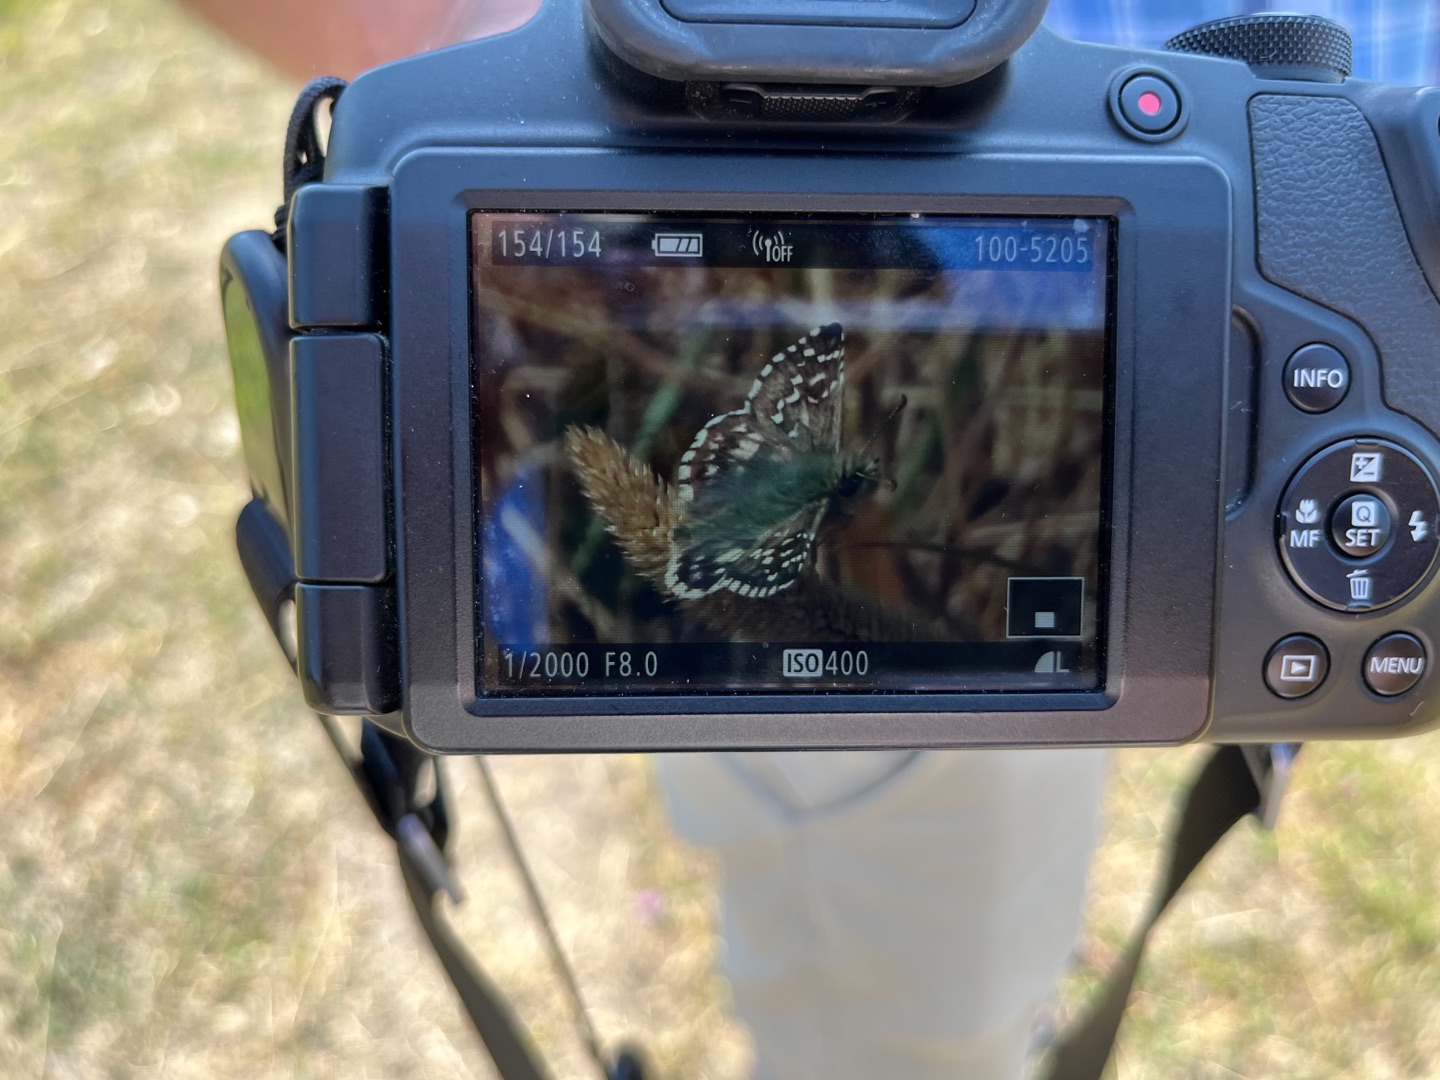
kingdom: Animalia
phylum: Arthropoda
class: Insecta
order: Lepidoptera
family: Hesperiidae
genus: Pyrgus
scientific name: Pyrgus armoricanus
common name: Fransk bredpande
